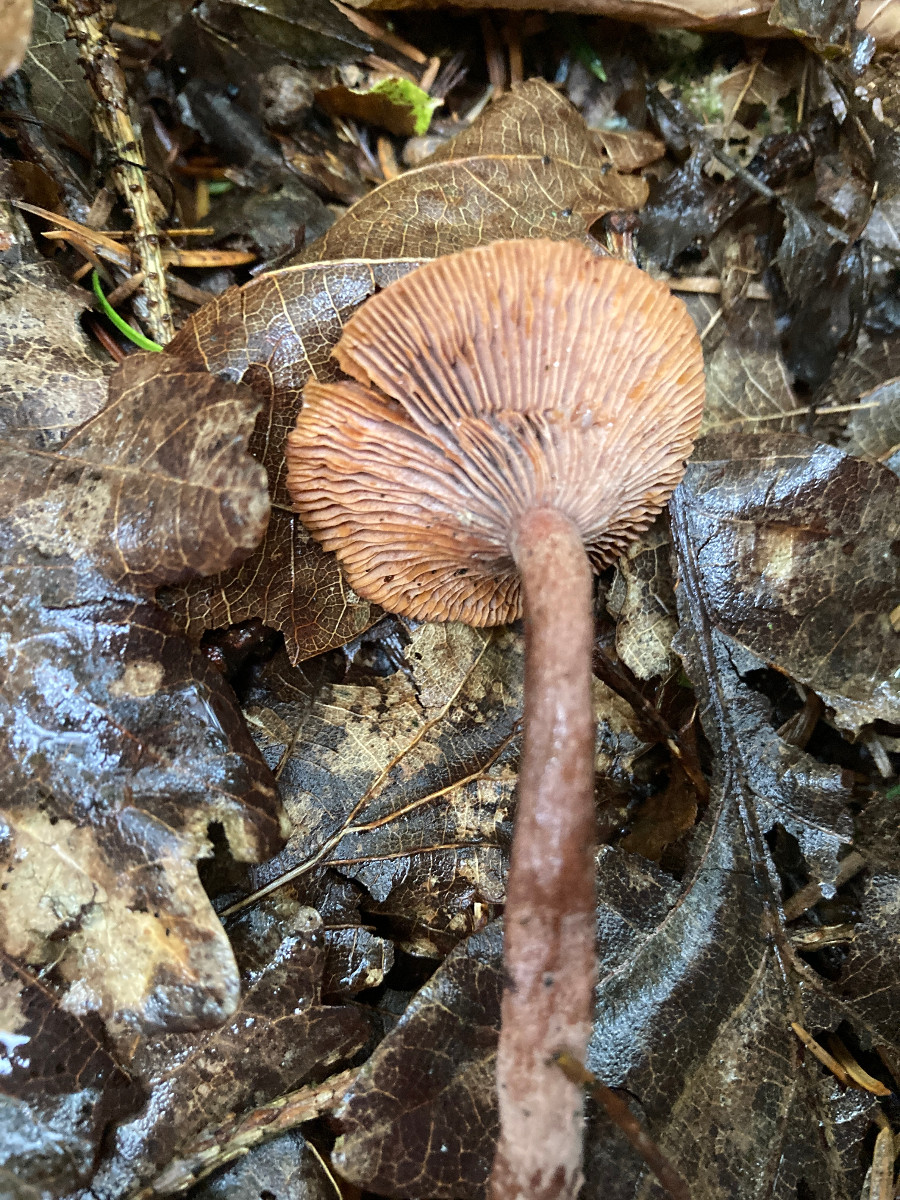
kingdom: Fungi
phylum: Basidiomycota
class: Agaricomycetes
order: Russulales
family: Russulaceae
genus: Lactarius
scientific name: Lactarius camphoratus
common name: kamfer-mælkehat
